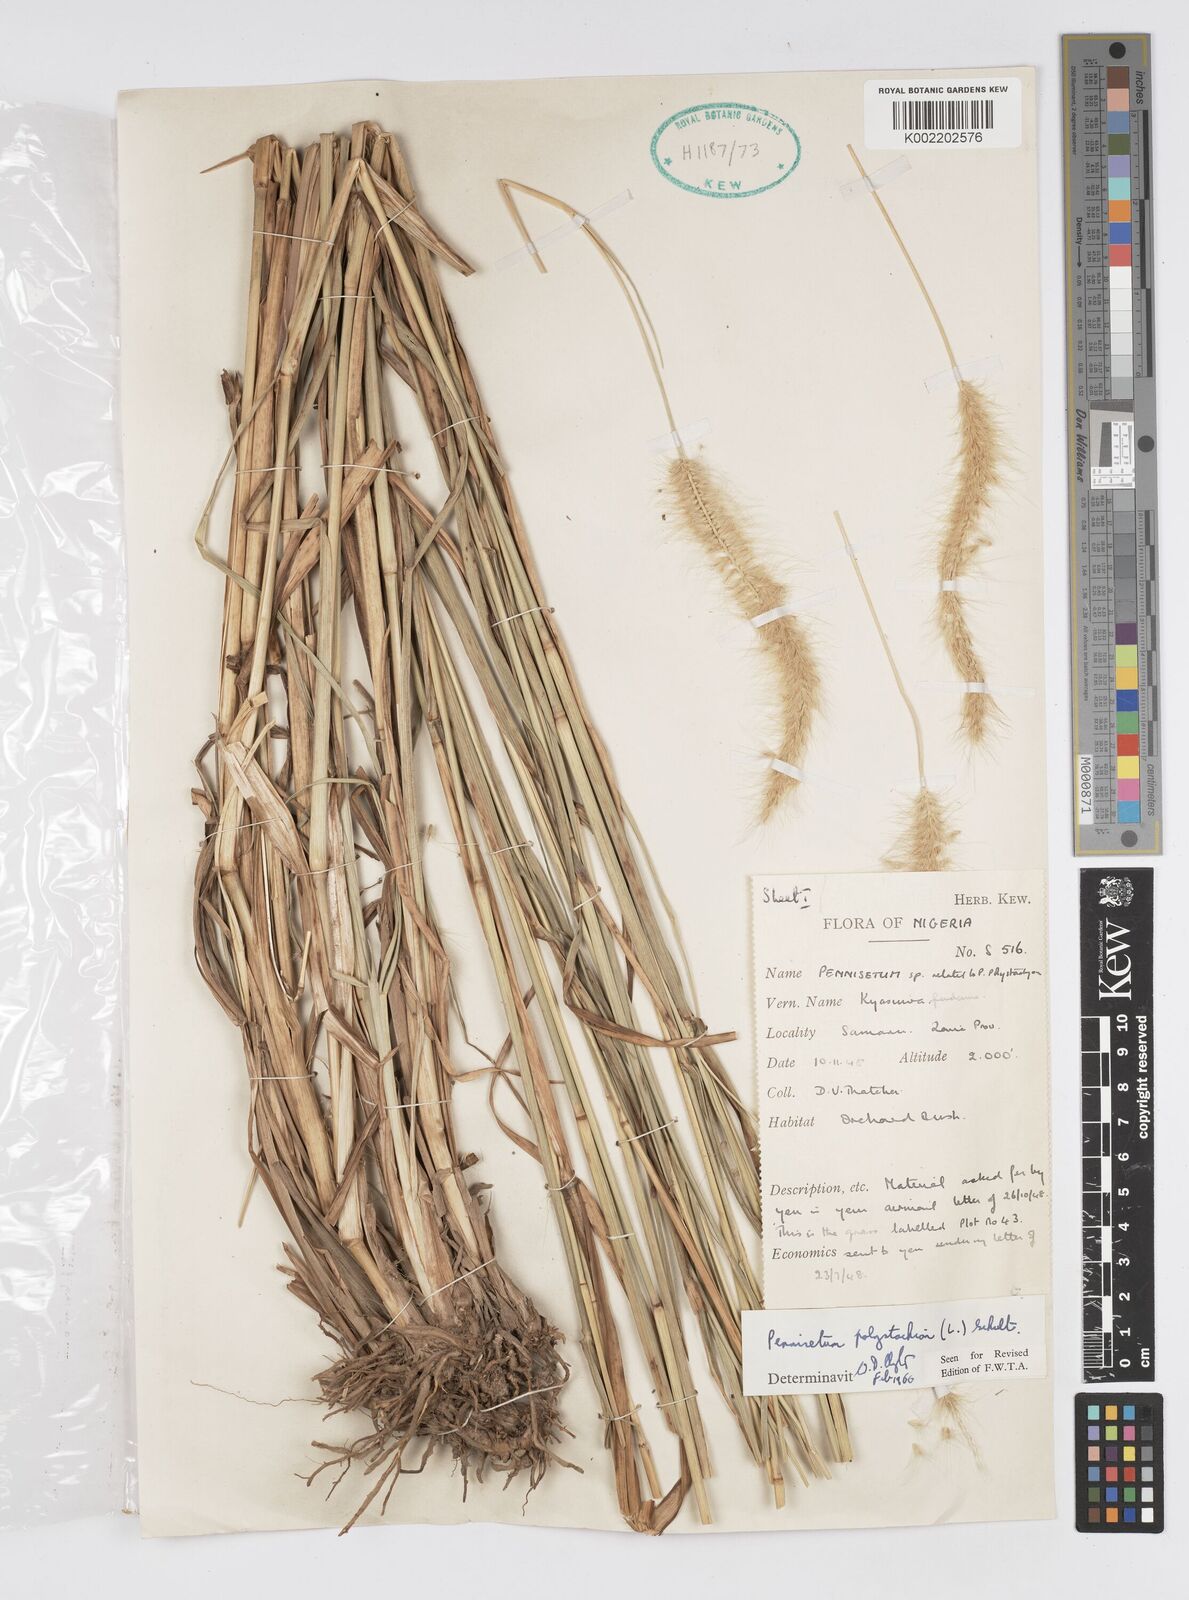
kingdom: Plantae
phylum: Tracheophyta
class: Liliopsida
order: Poales
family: Poaceae
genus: Setaria
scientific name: Setaria parviflora
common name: Knotroot bristle-grass
